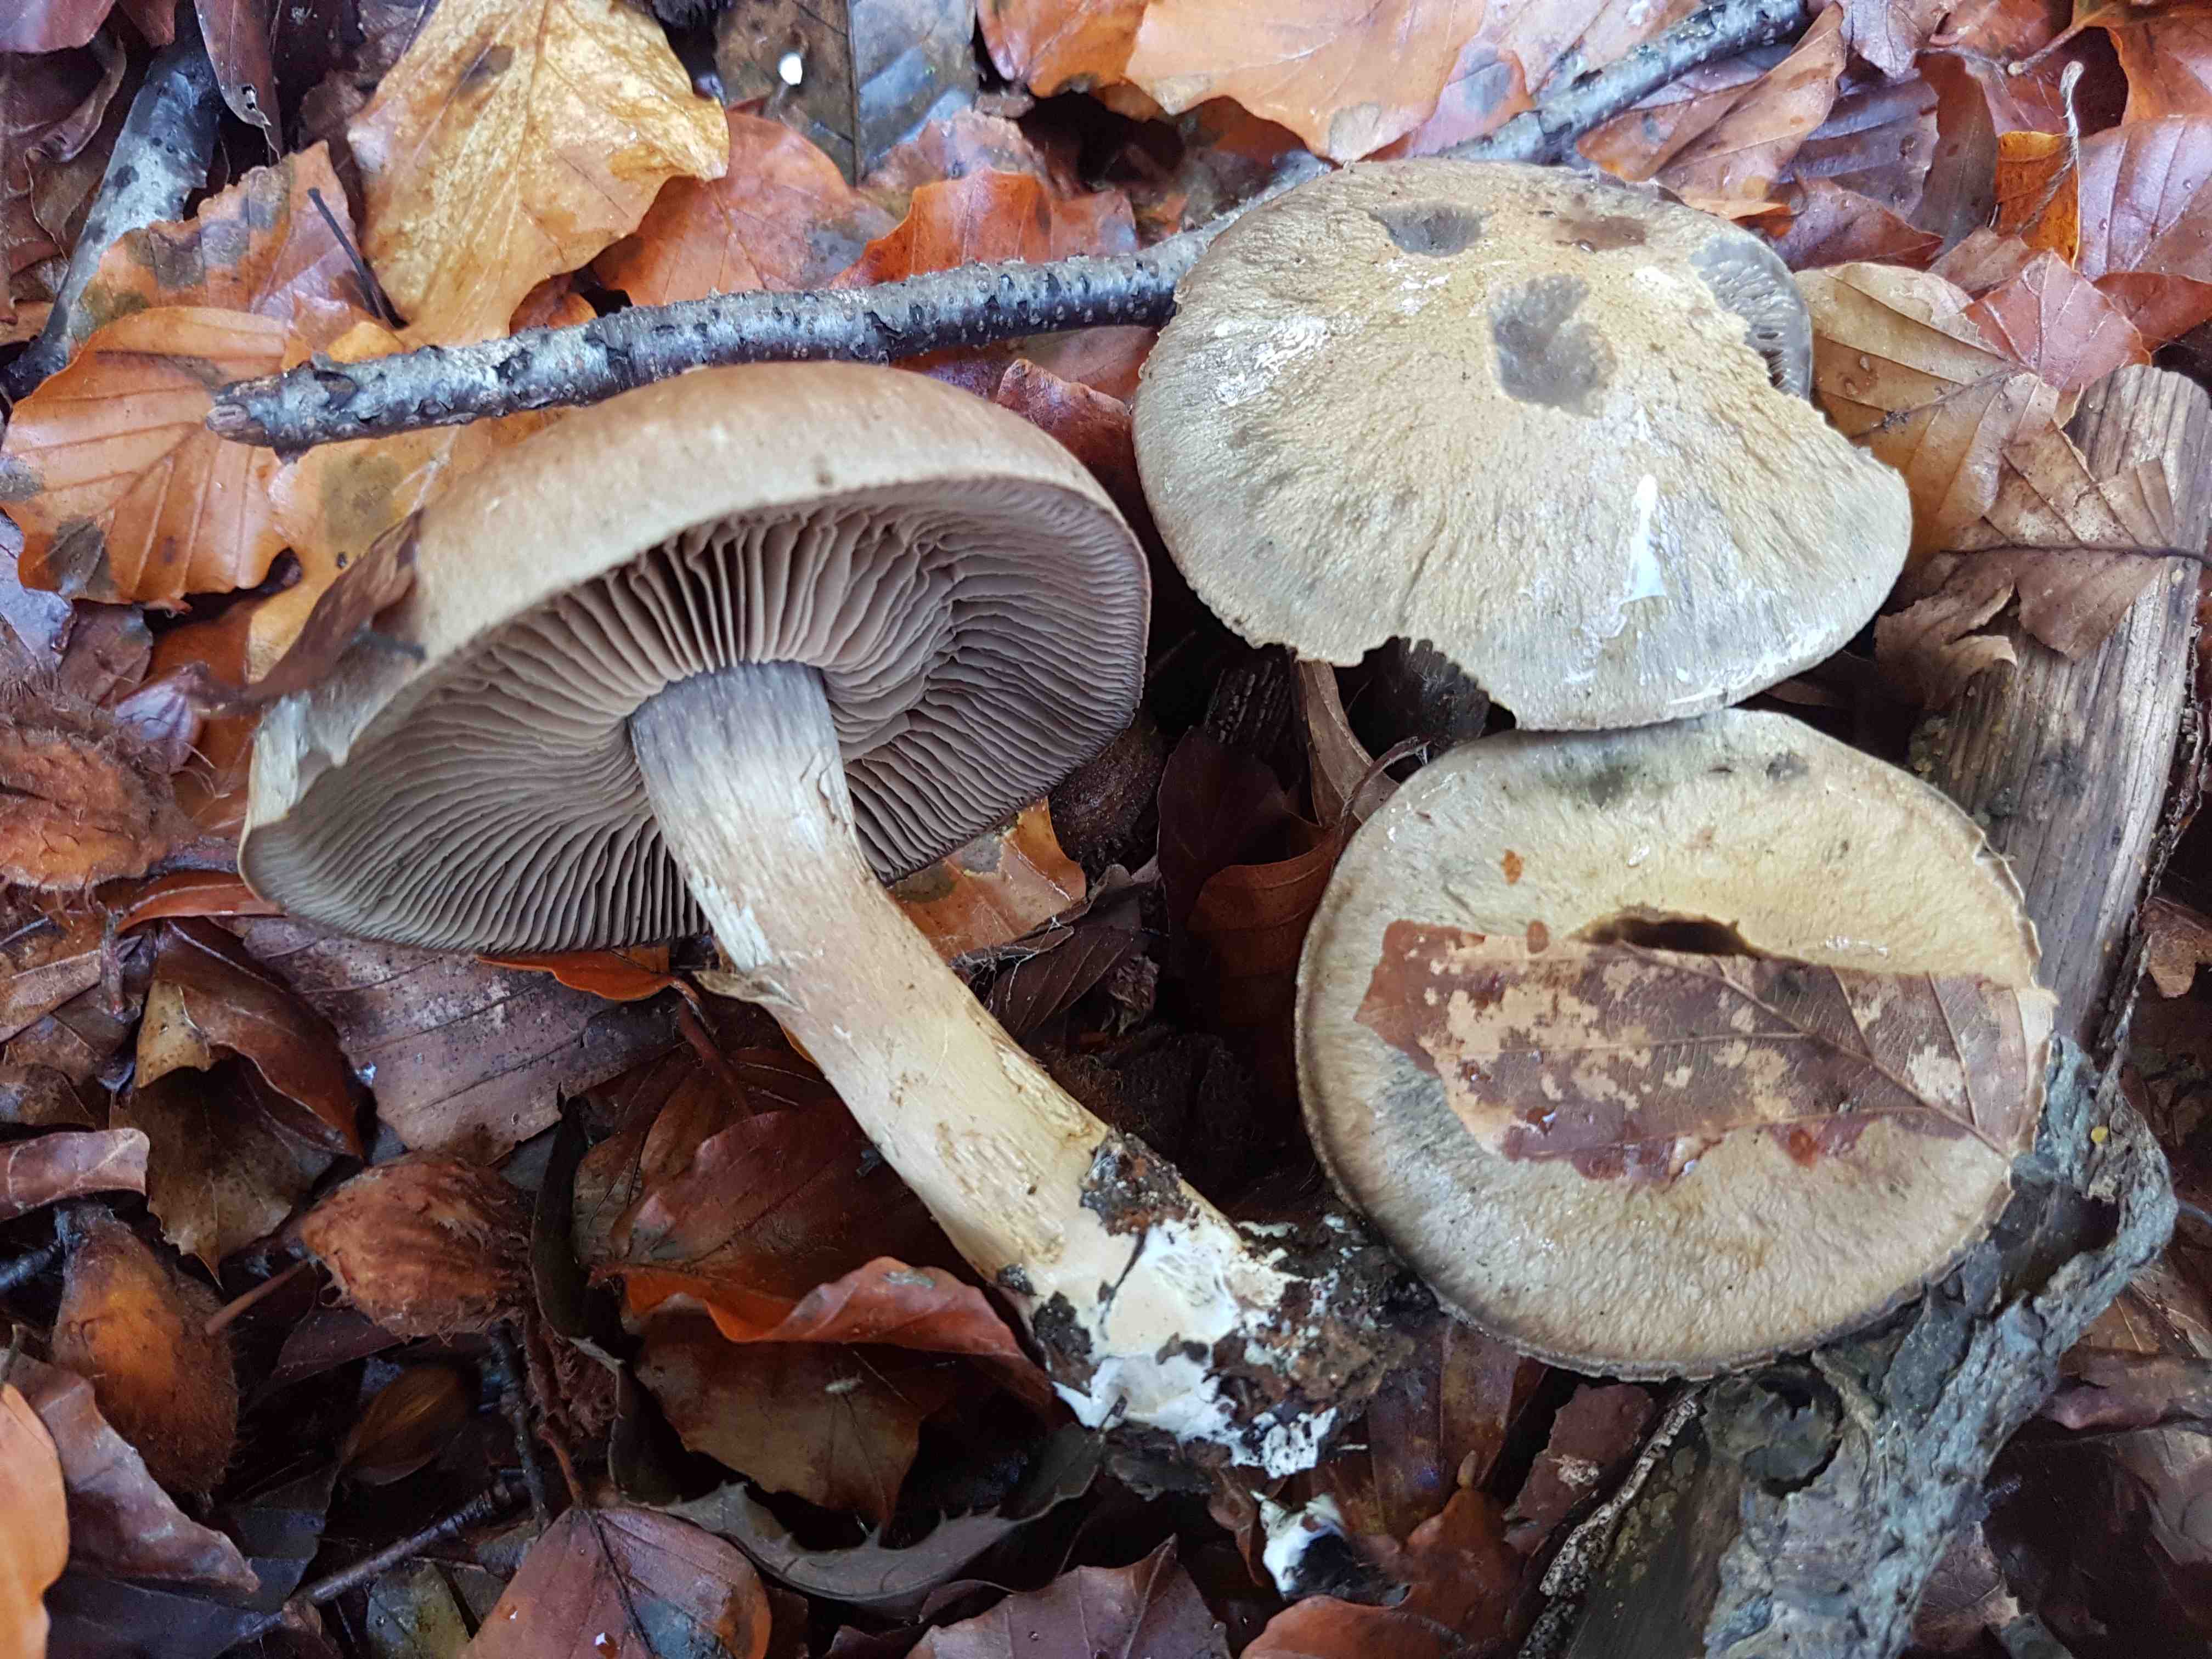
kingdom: Fungi
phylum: Basidiomycota
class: Agaricomycetes
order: Agaricales
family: Cortinariaceae
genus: Cortinarius
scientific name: Cortinarius
